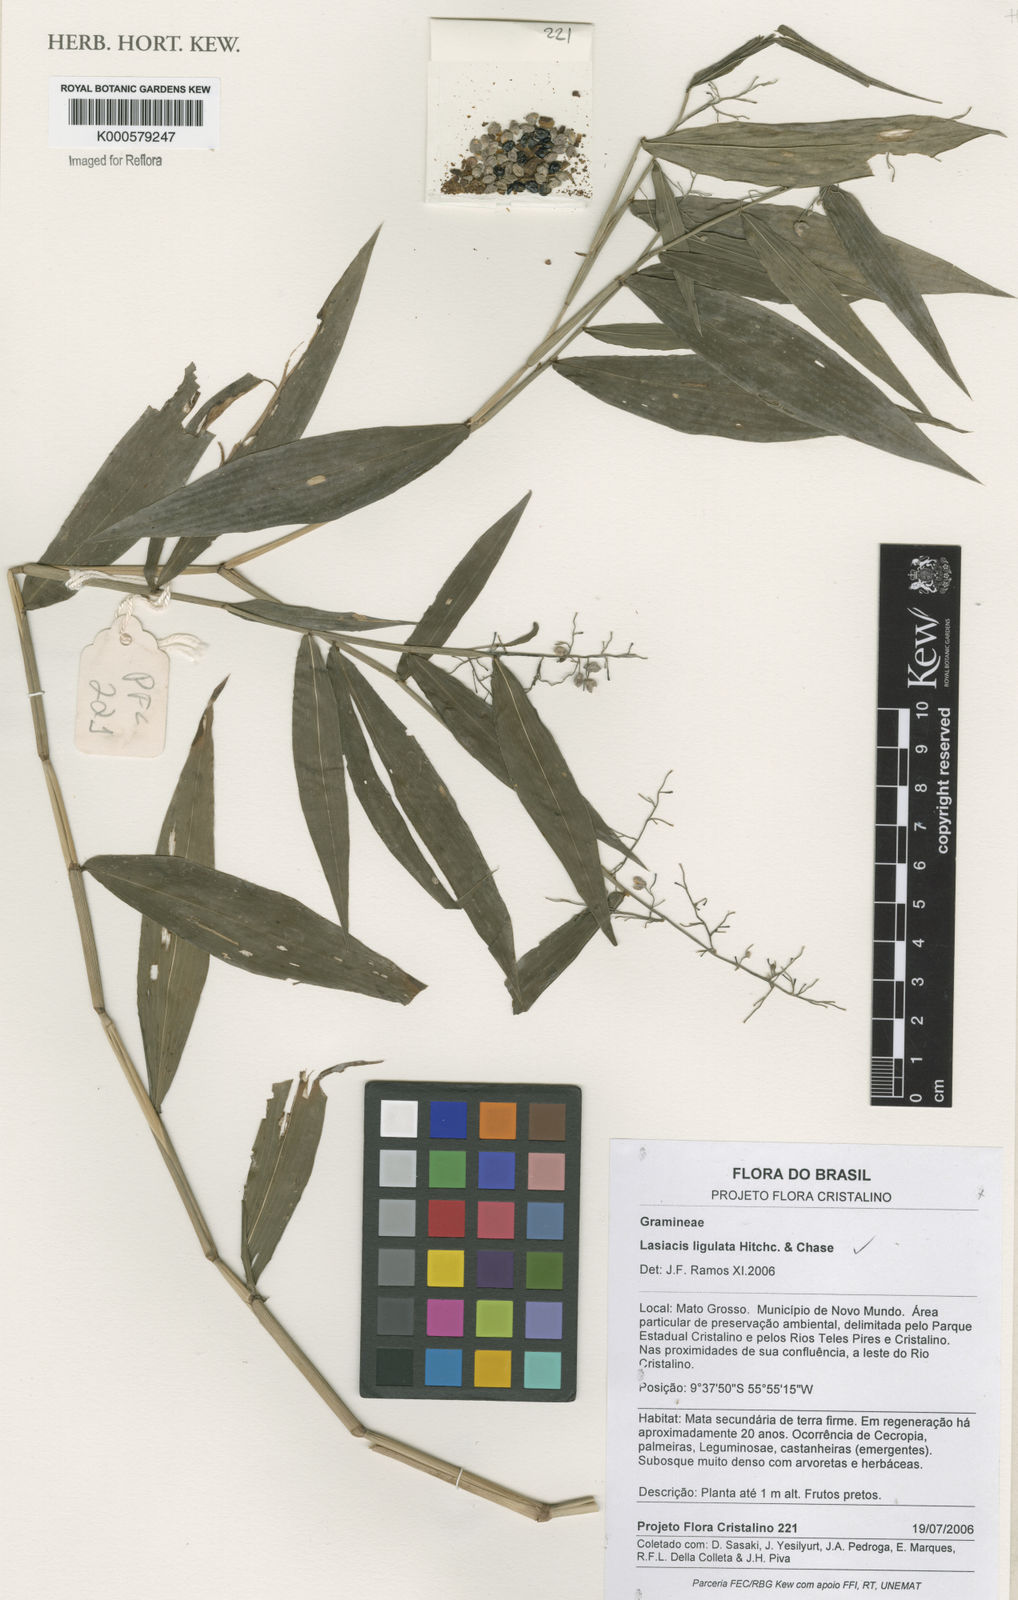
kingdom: Plantae
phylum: Tracheophyta
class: Liliopsida
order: Poales
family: Poaceae
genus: Lasiacis
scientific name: Lasiacis ligulata
